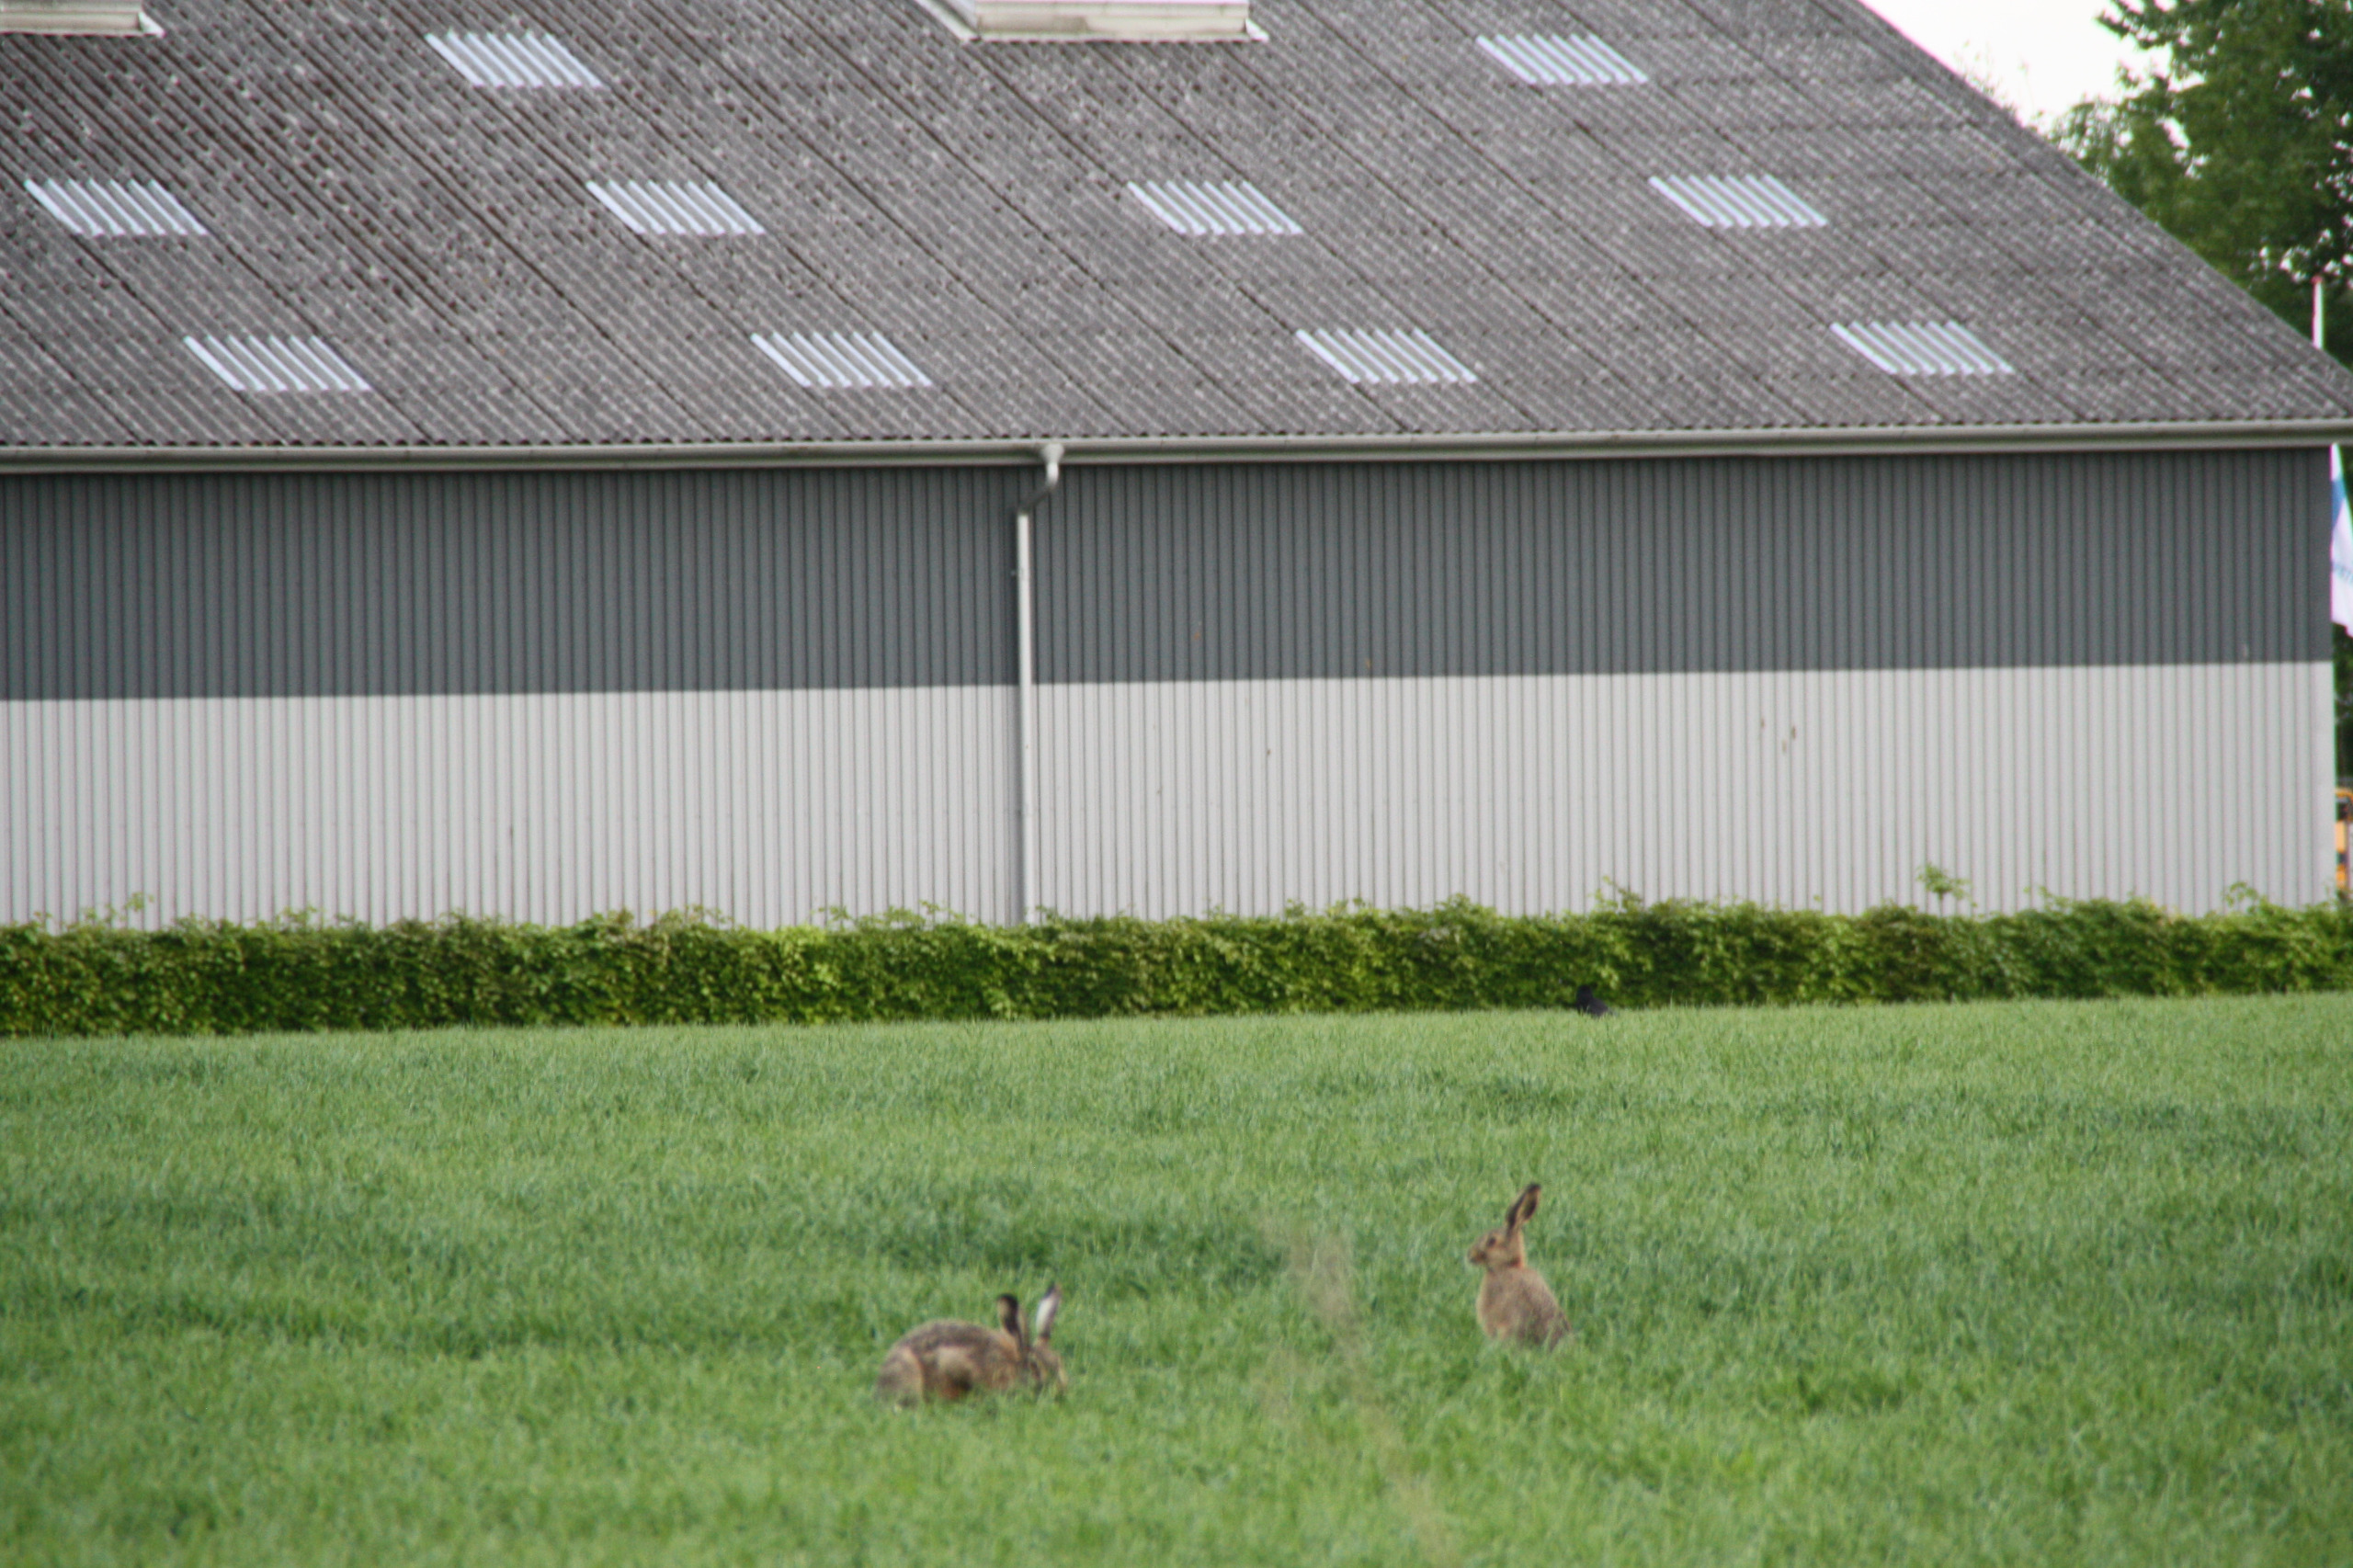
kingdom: Animalia
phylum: Chordata
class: Mammalia
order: Lagomorpha
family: Leporidae
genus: Lepus
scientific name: Lepus europaeus
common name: Hare
